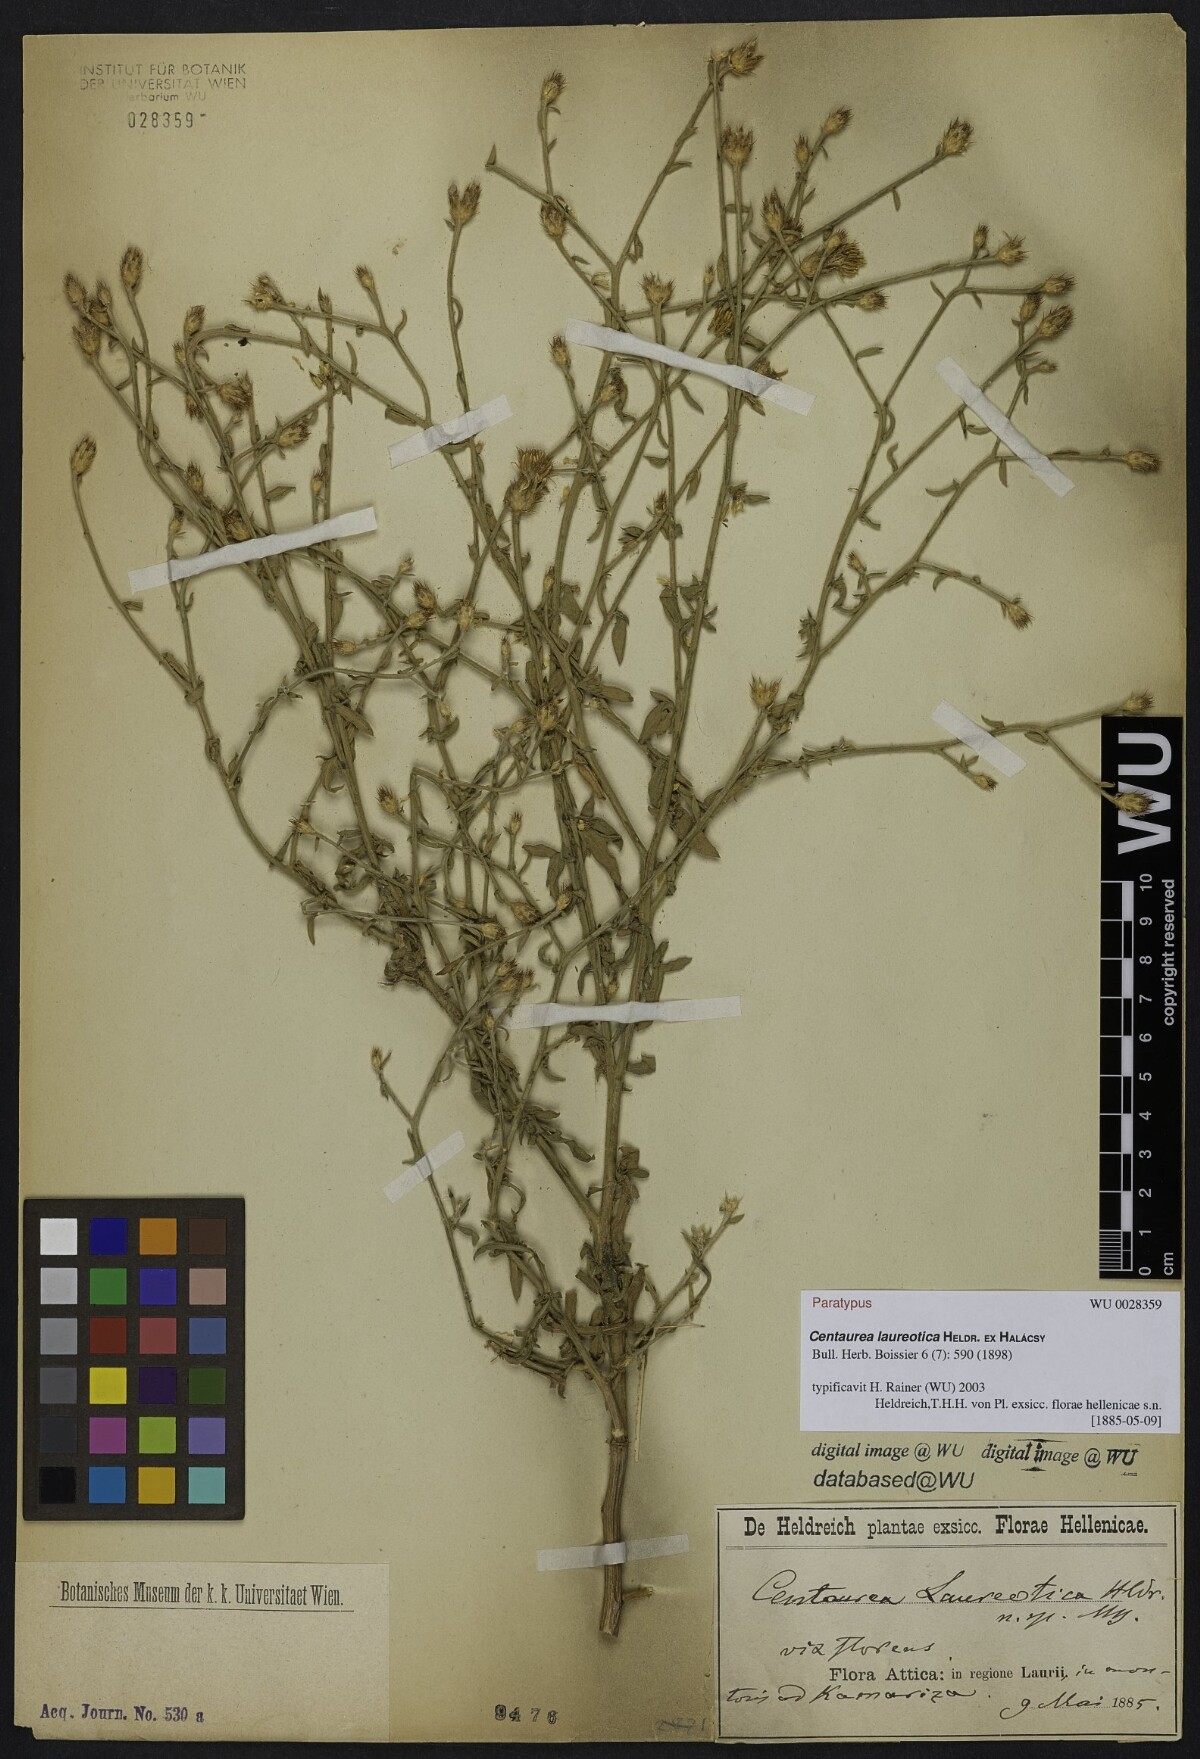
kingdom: Plantae
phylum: Tracheophyta
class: Magnoliopsida
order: Asterales
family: Asteraceae
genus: Centaurea
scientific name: Centaurea laureotica
